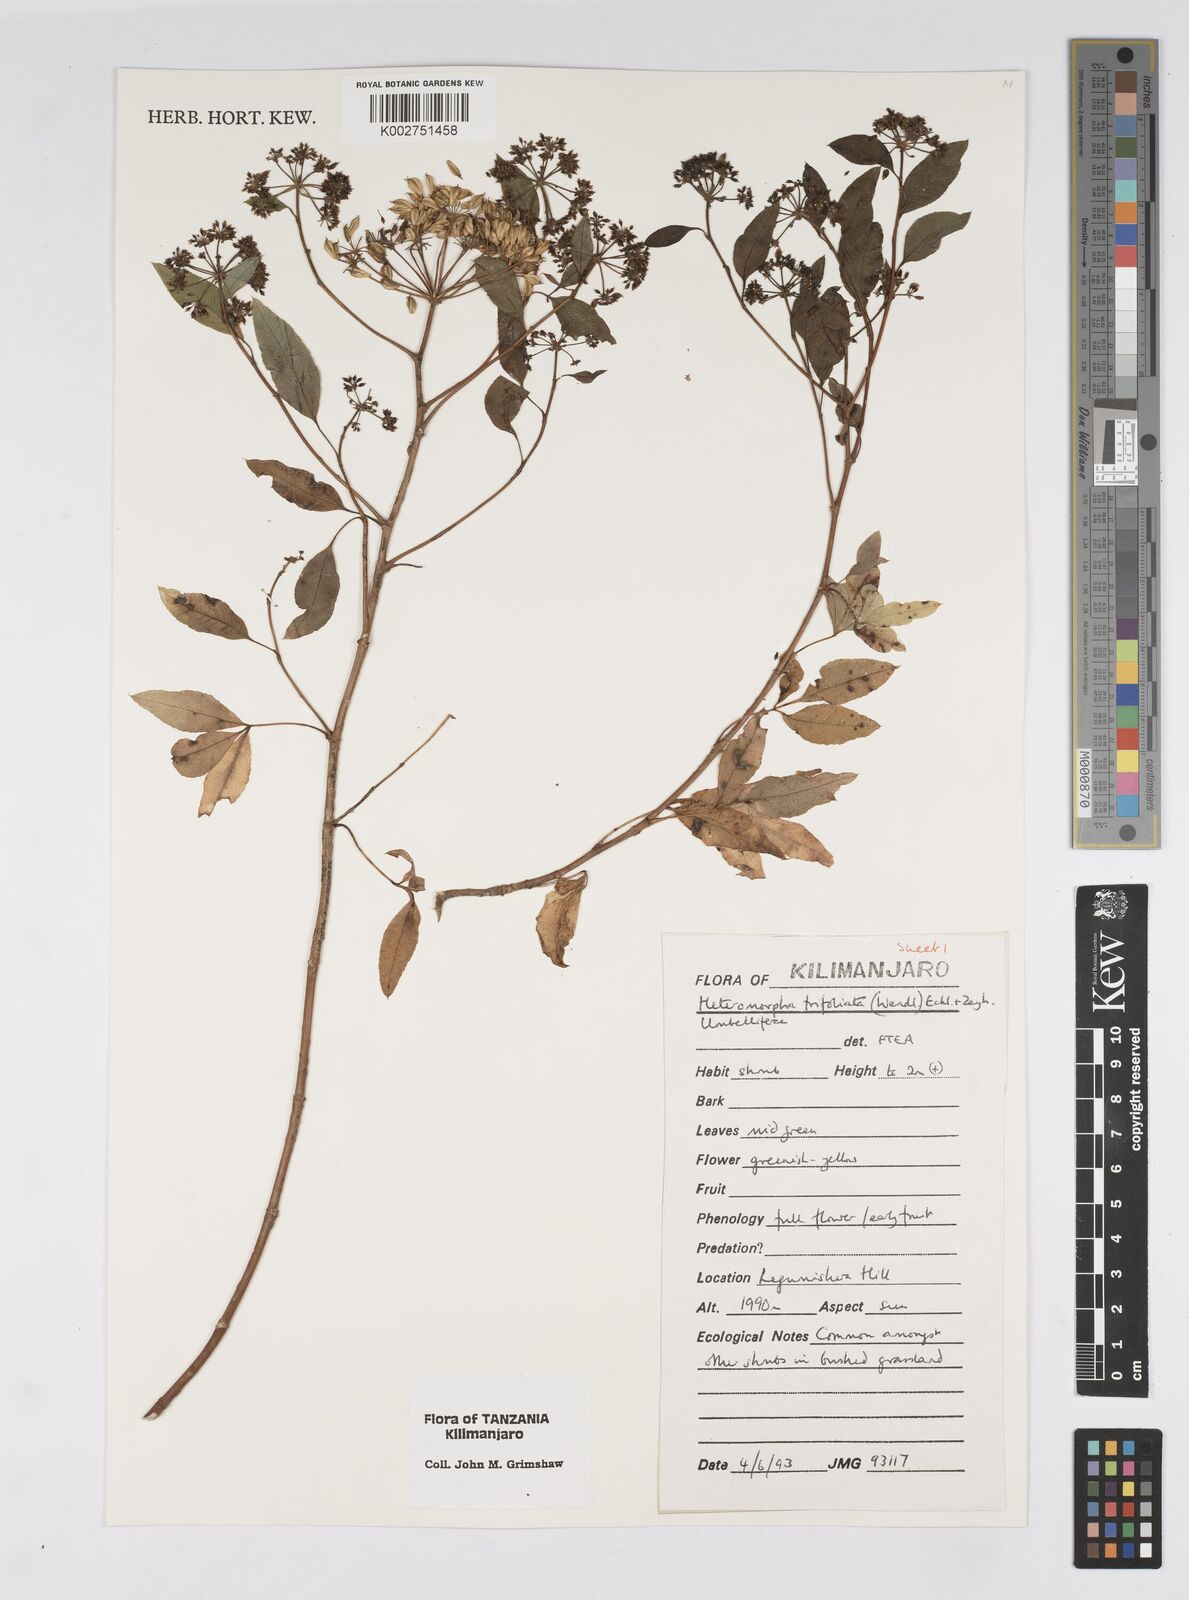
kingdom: Plantae
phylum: Tracheophyta
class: Magnoliopsida
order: Apiales
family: Apiaceae
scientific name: Apiaceae
